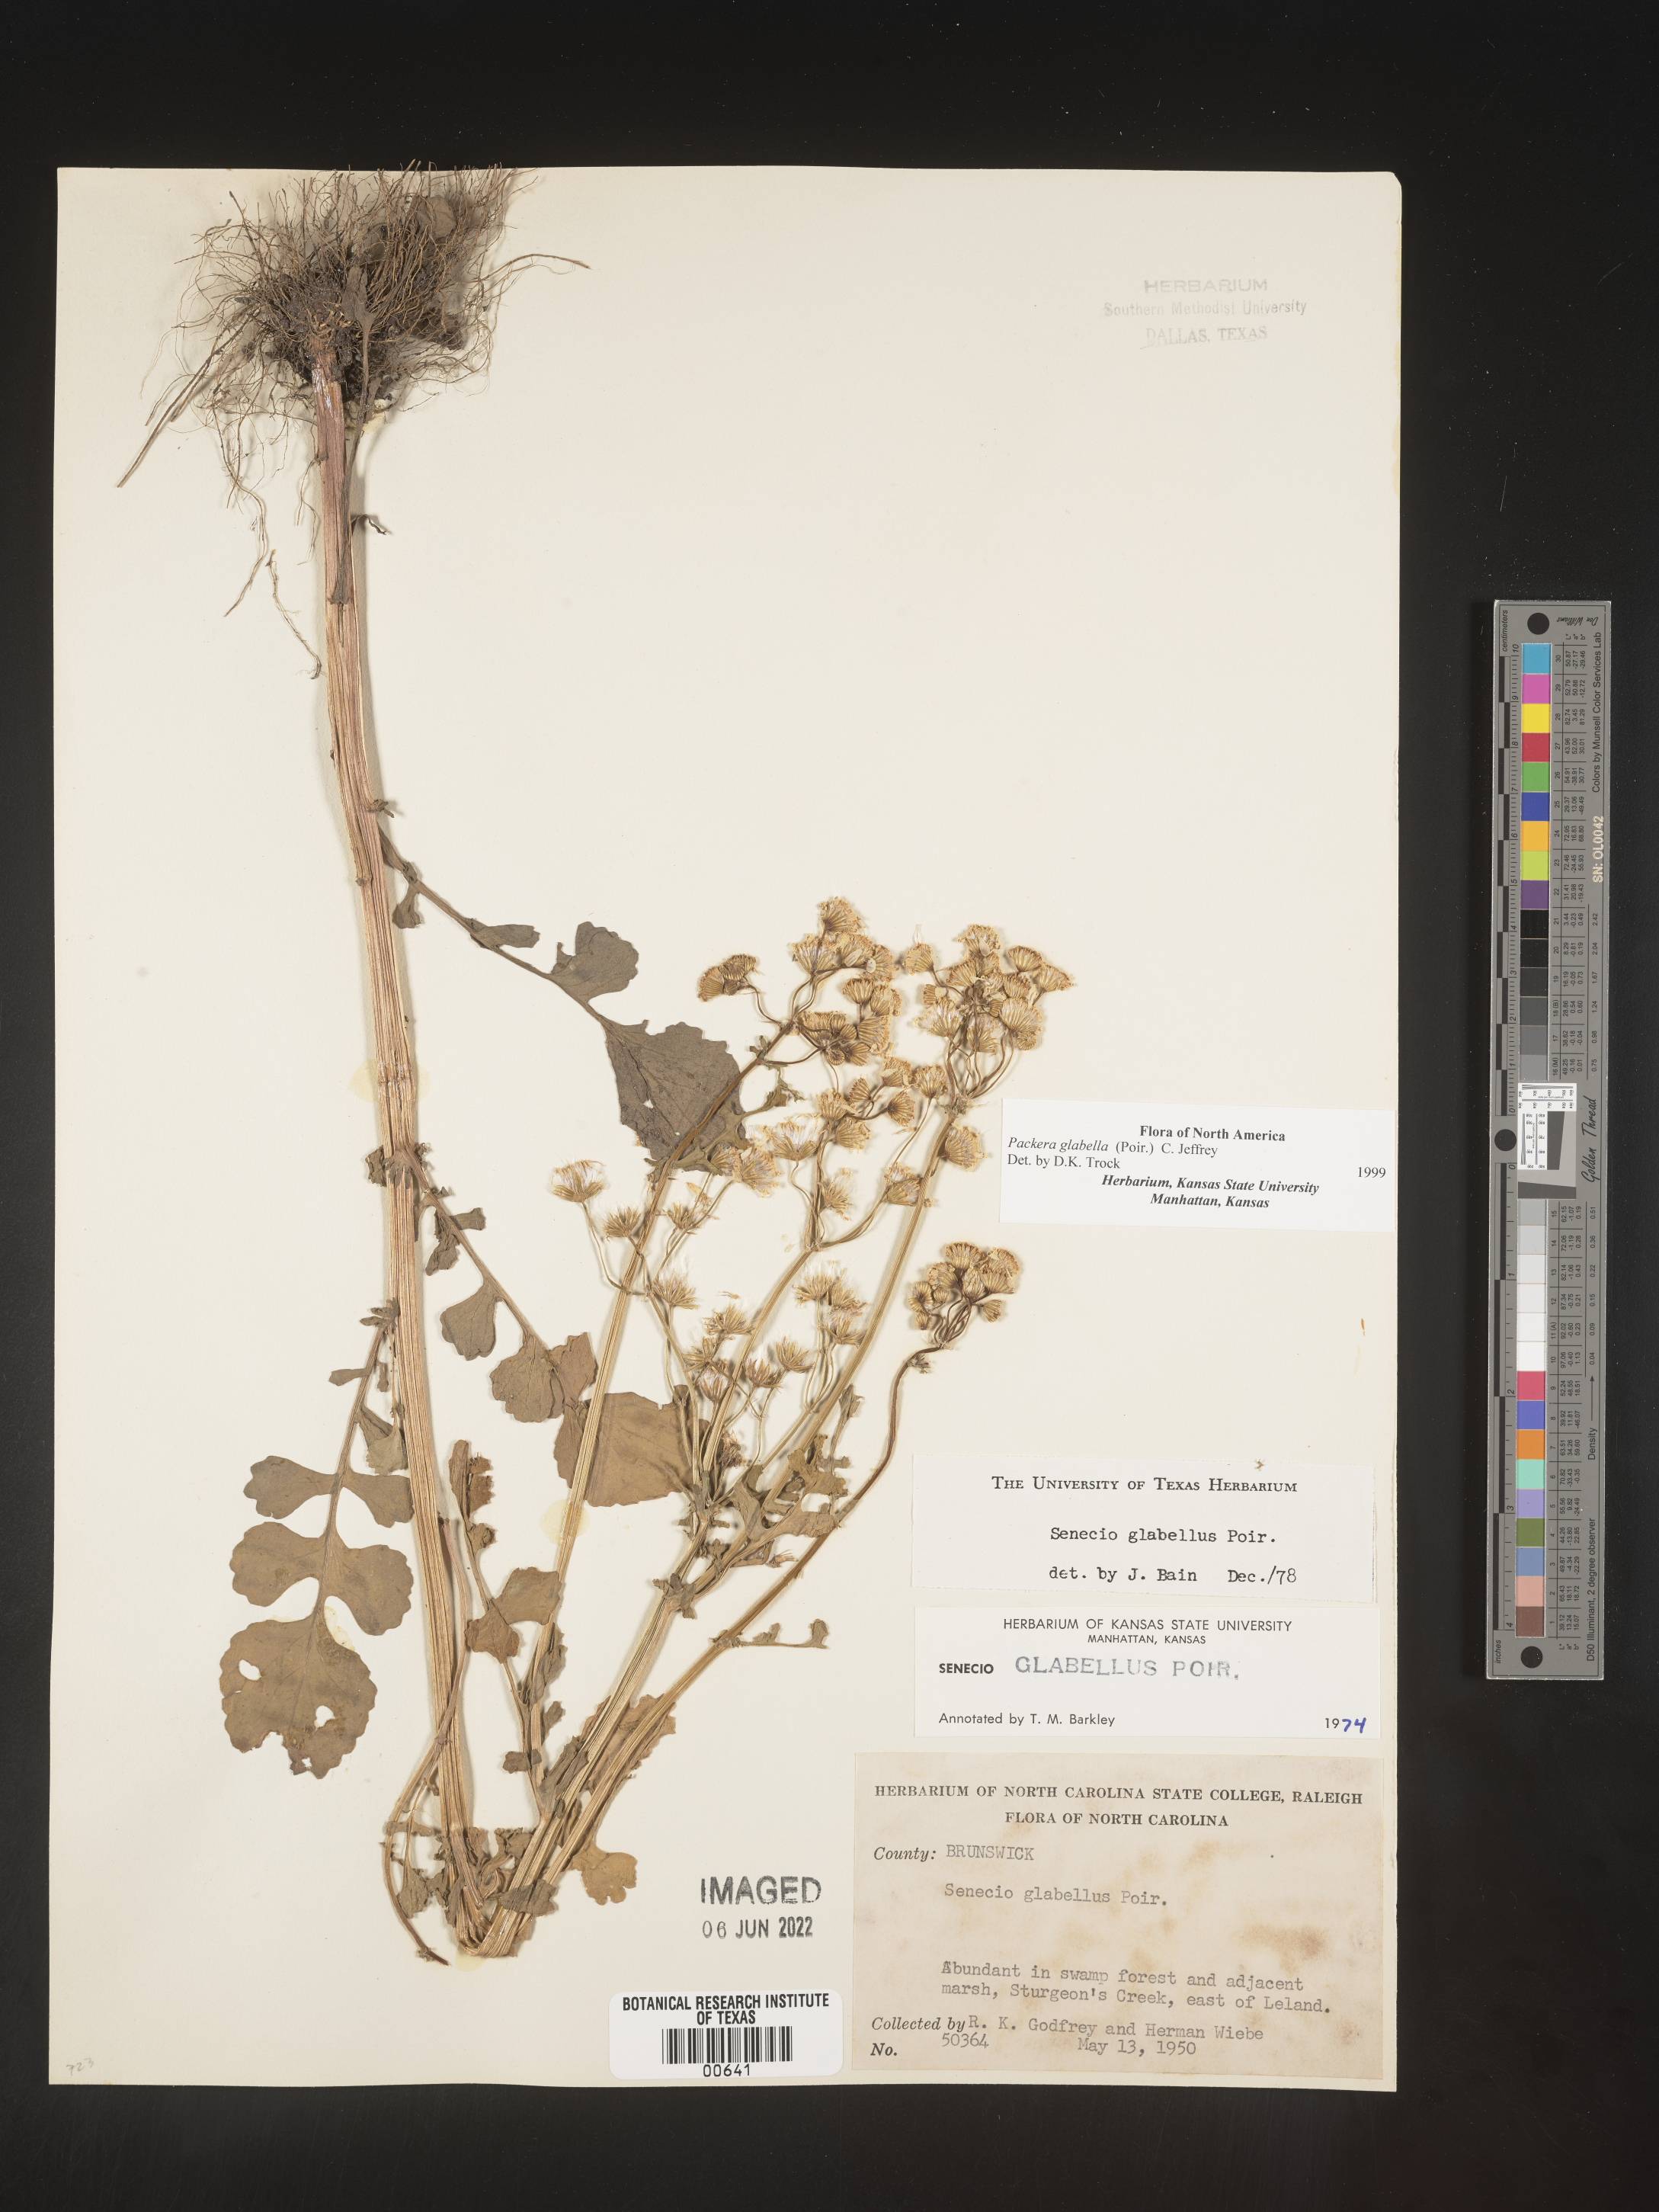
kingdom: Plantae
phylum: Tracheophyta
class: Magnoliopsida
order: Asterales
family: Asteraceae
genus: Packera
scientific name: Packera glabella
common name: Butterweed
